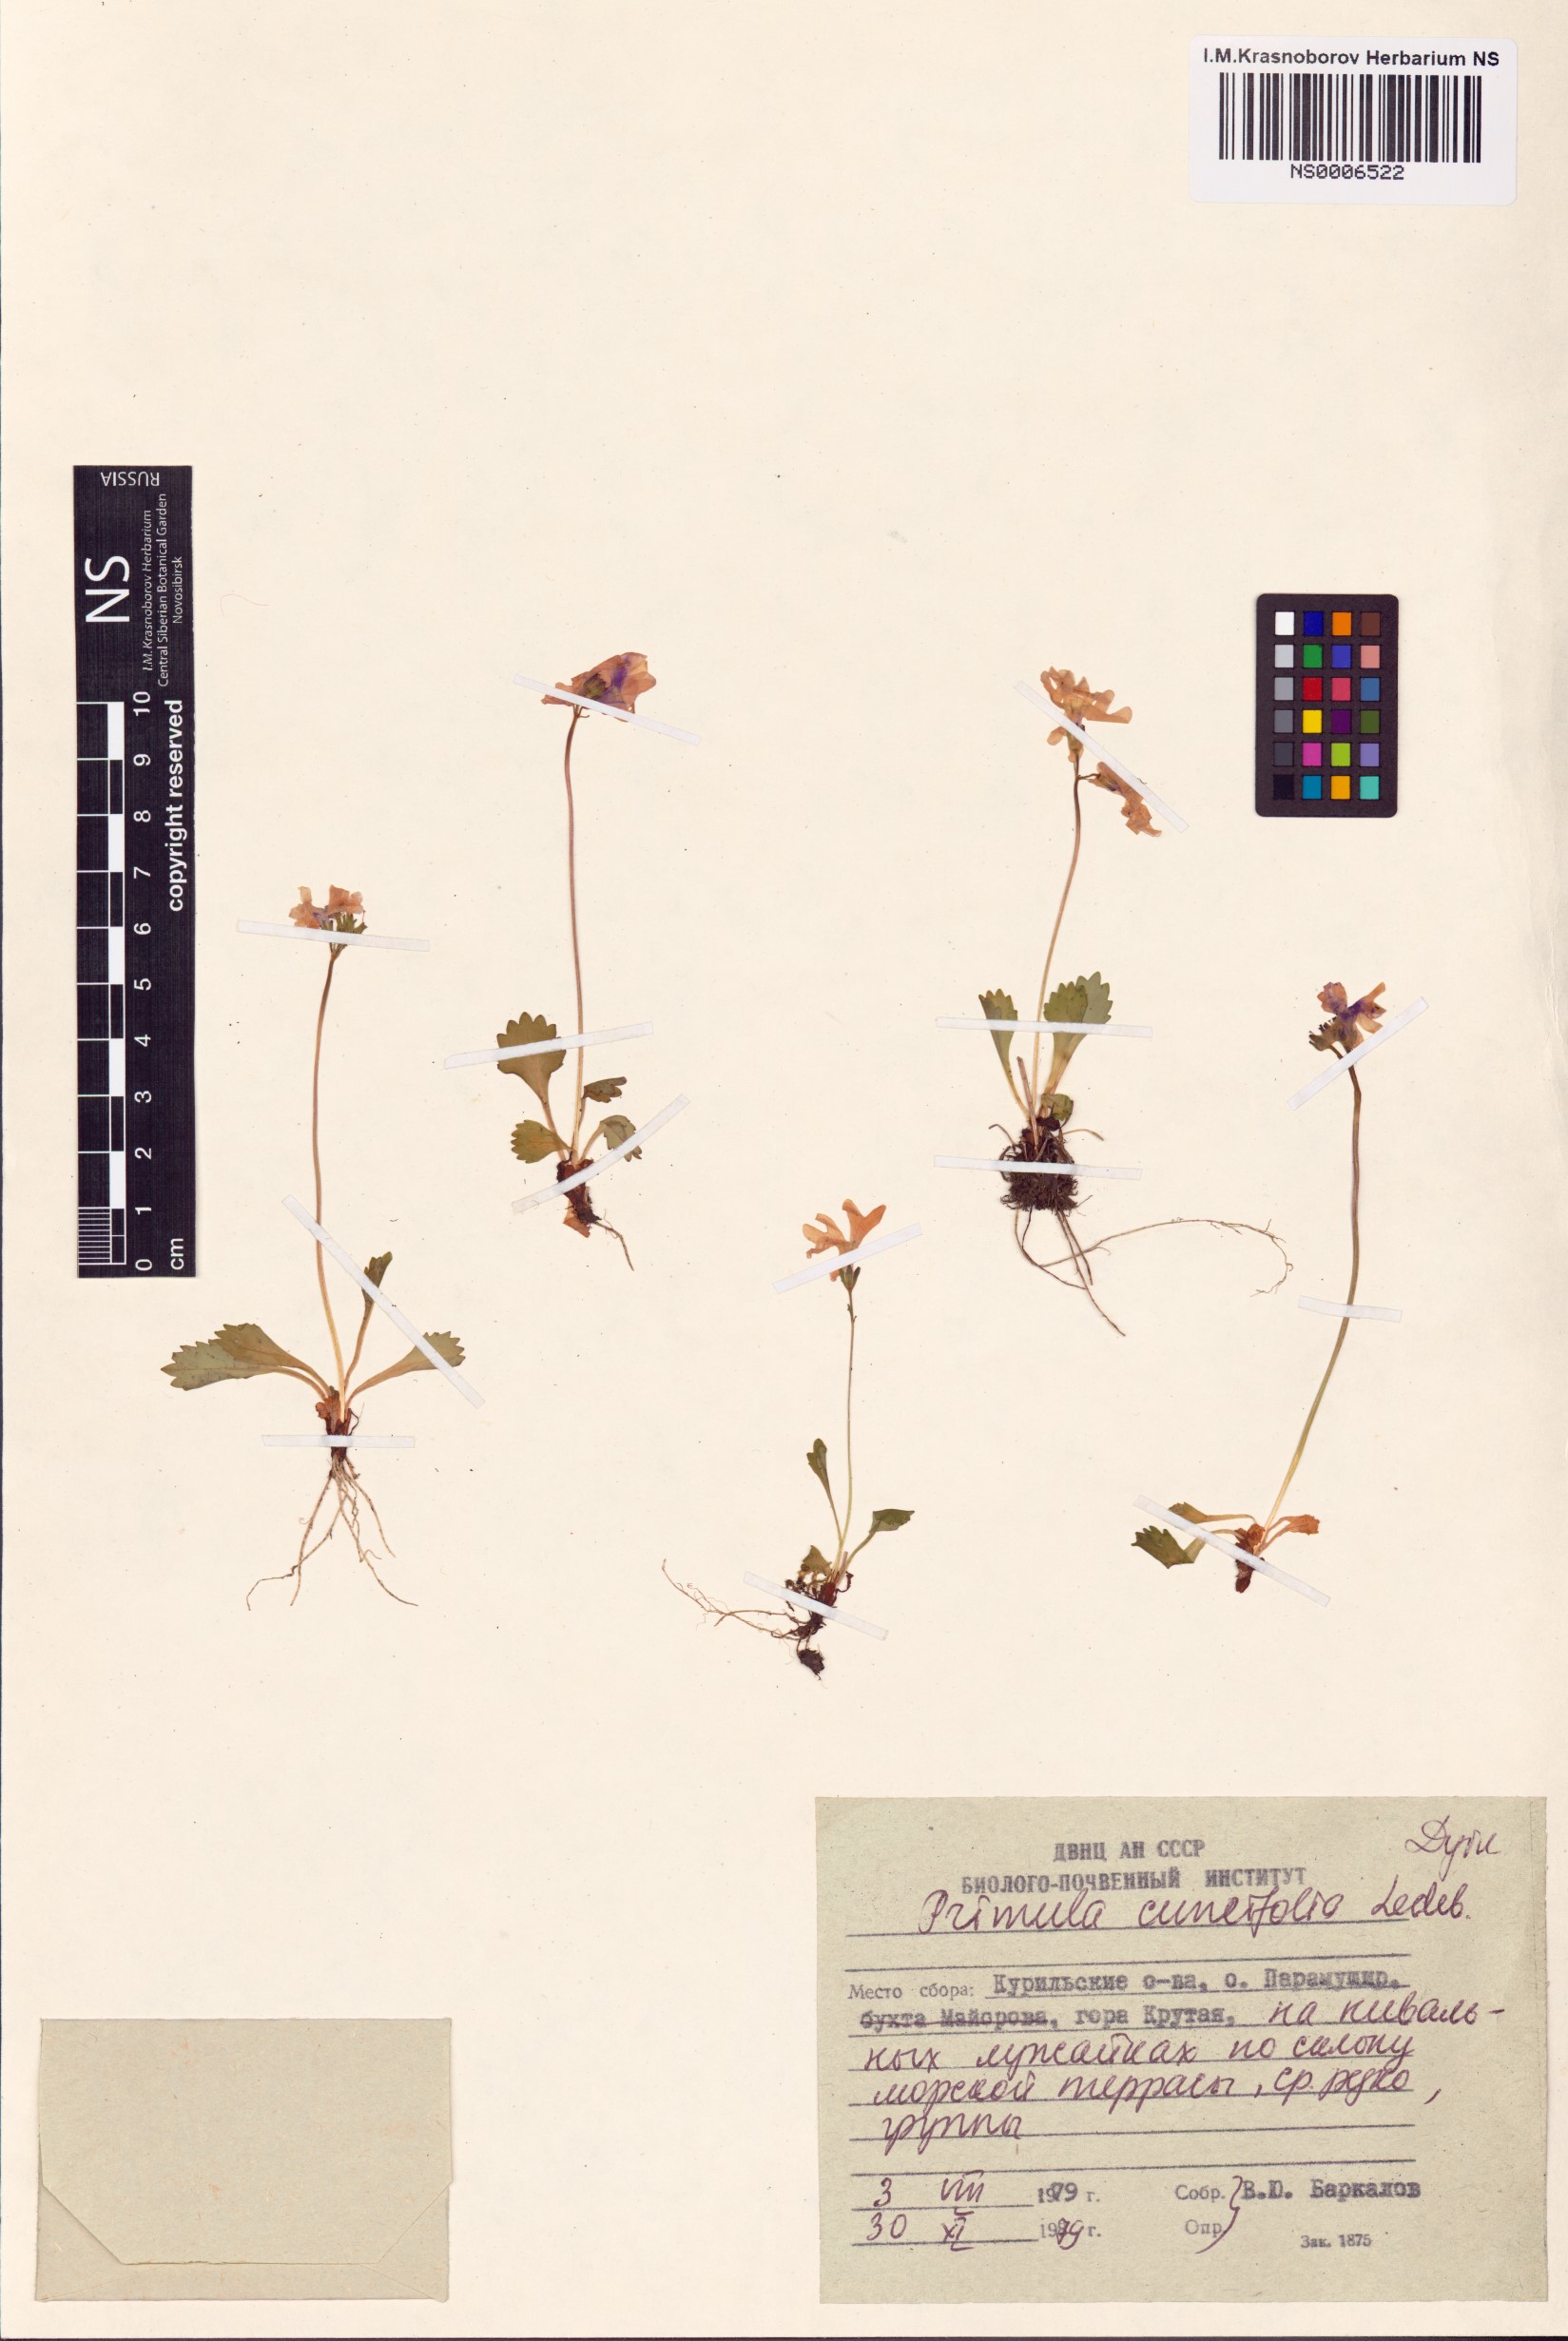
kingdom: Plantae
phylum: Tracheophyta
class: Magnoliopsida
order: Ericales
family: Primulaceae
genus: Primula
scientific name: Primula cuneifolia
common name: Wedge-leaved primrose
